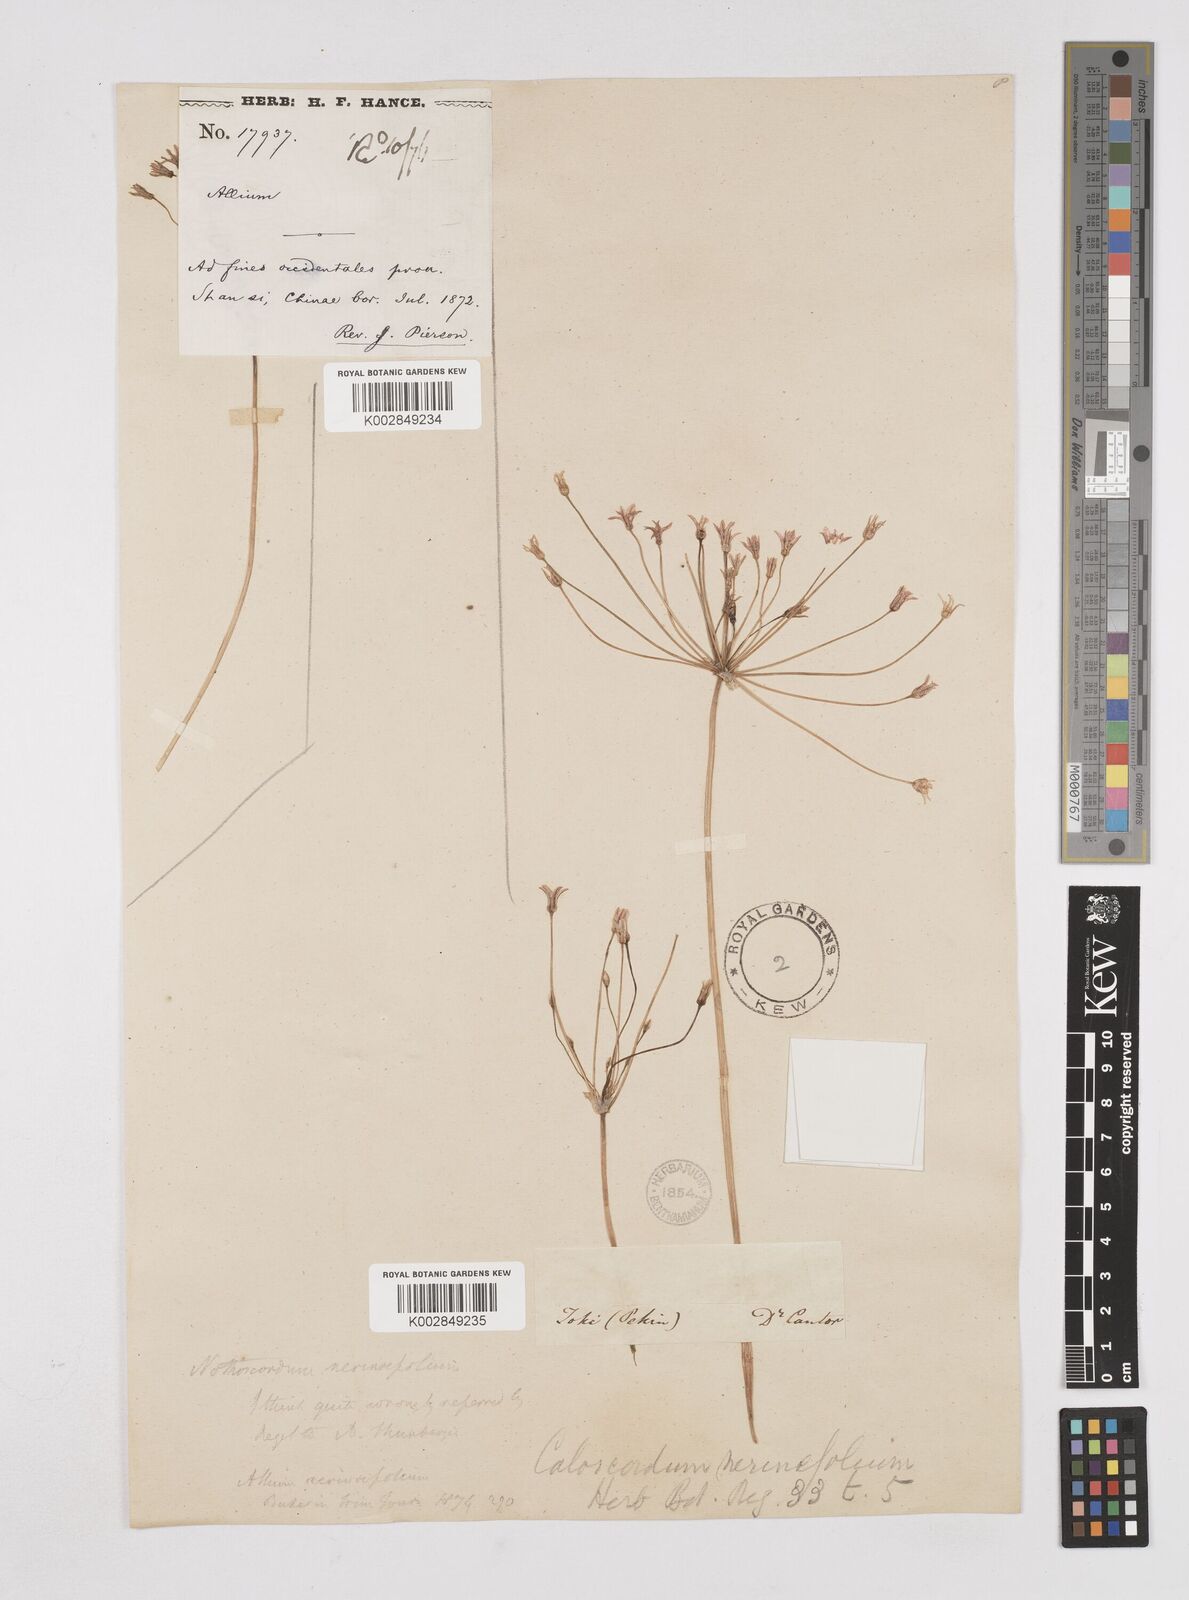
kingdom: Plantae
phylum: Tracheophyta
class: Liliopsida
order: Liliales
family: Liliaceae
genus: Agapanthus
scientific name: Agapanthus
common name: Agapanthus
